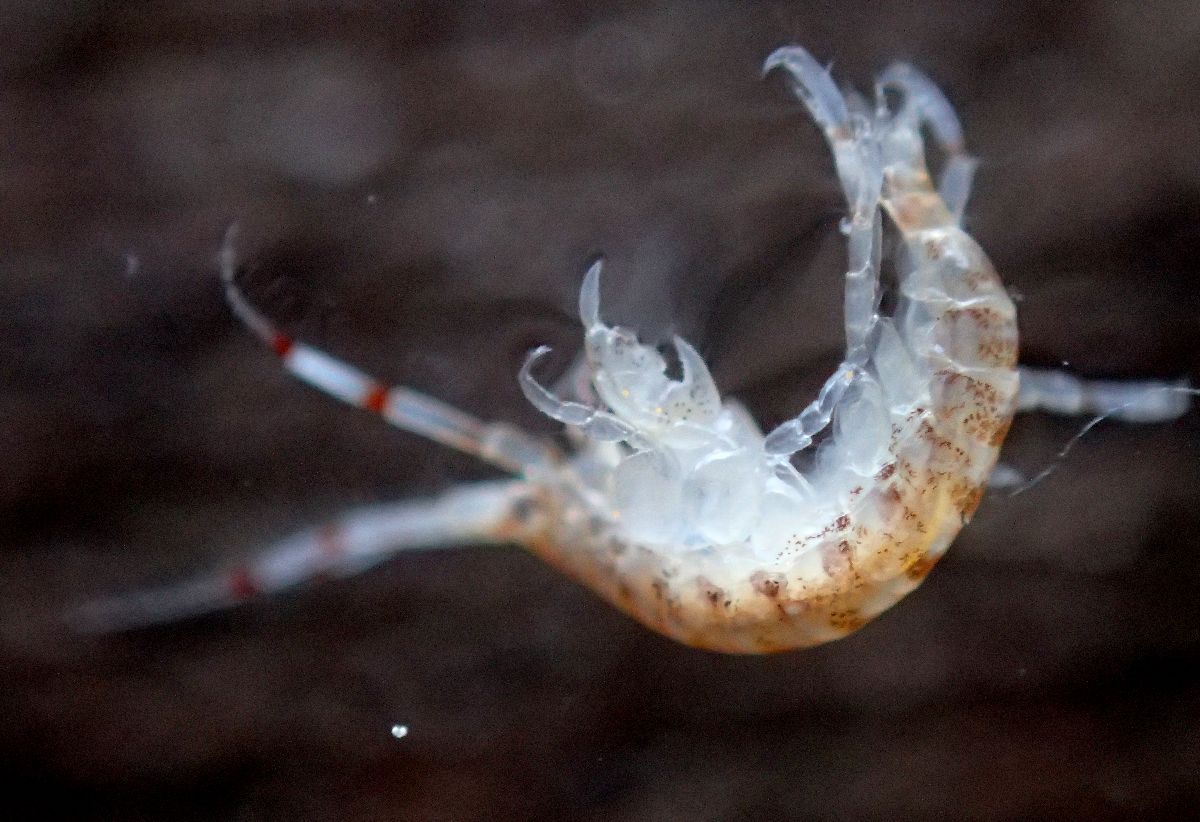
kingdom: Animalia
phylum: Arthropoda
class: Malacostraca
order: Amphipoda
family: Ischyroceridae
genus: Ericthonius
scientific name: Ericthonius megalops
